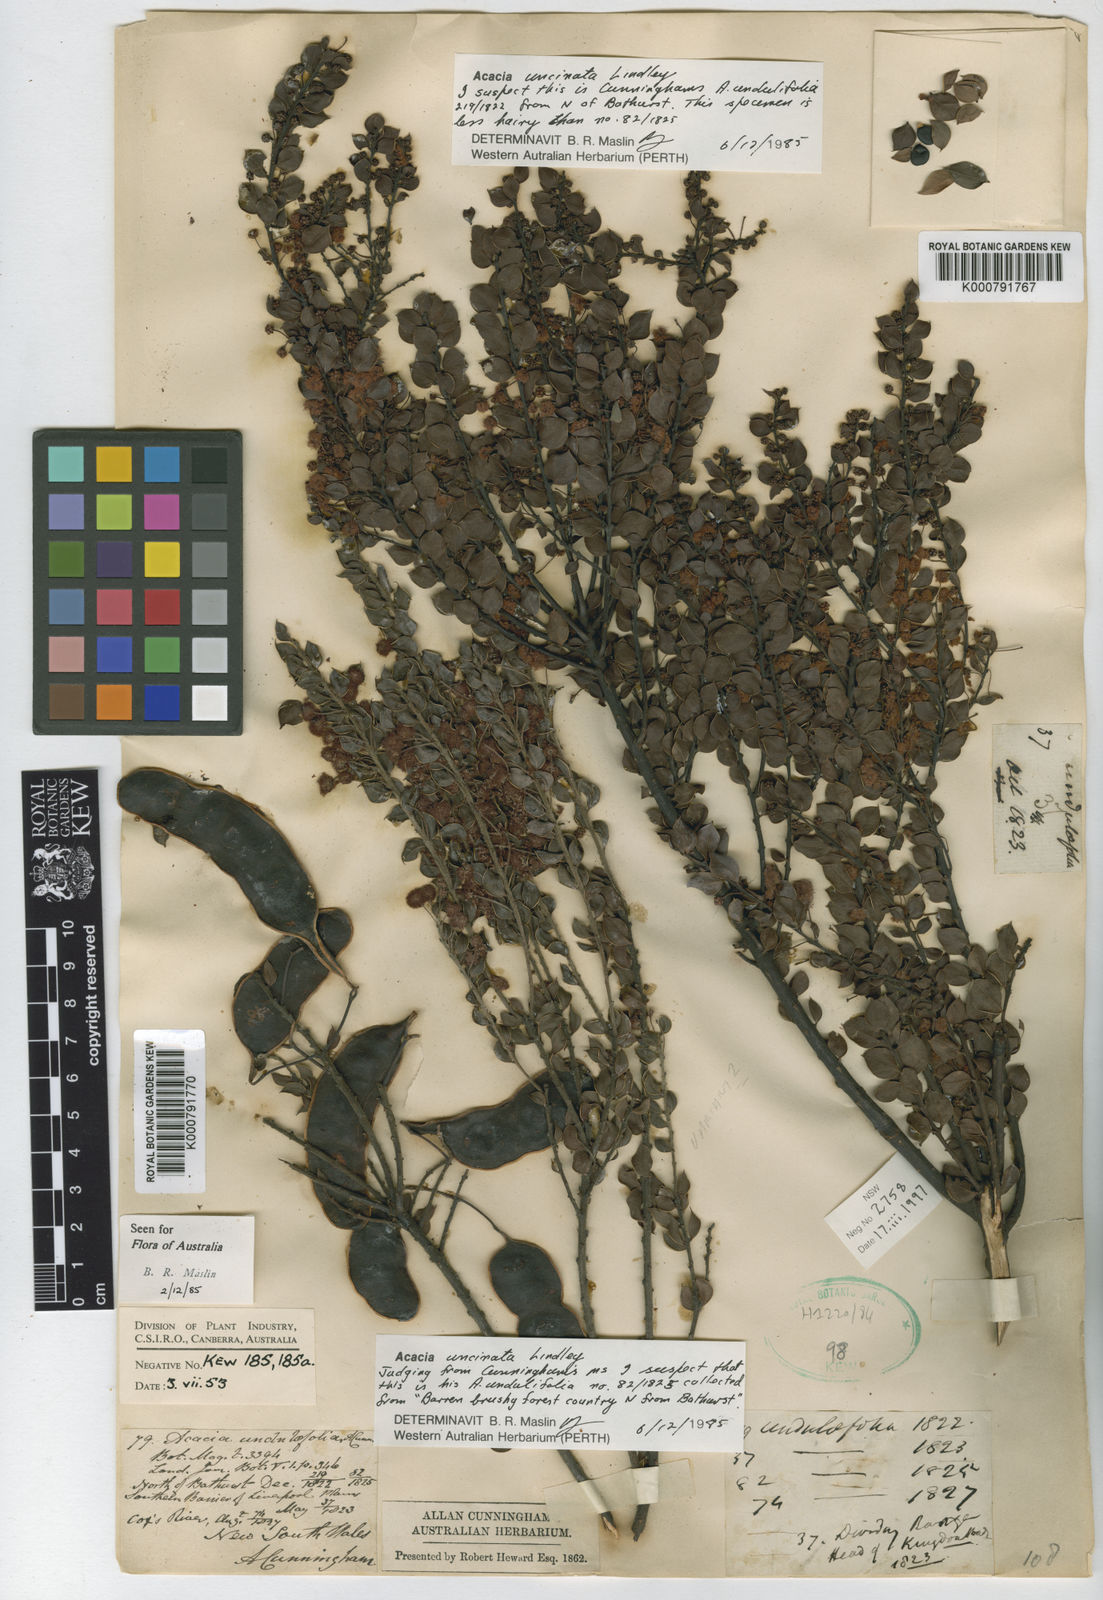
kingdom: Plantae
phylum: Tracheophyta
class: Magnoliopsida
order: Fabales
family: Fabaceae
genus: Acacia
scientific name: Acacia undulifolia
